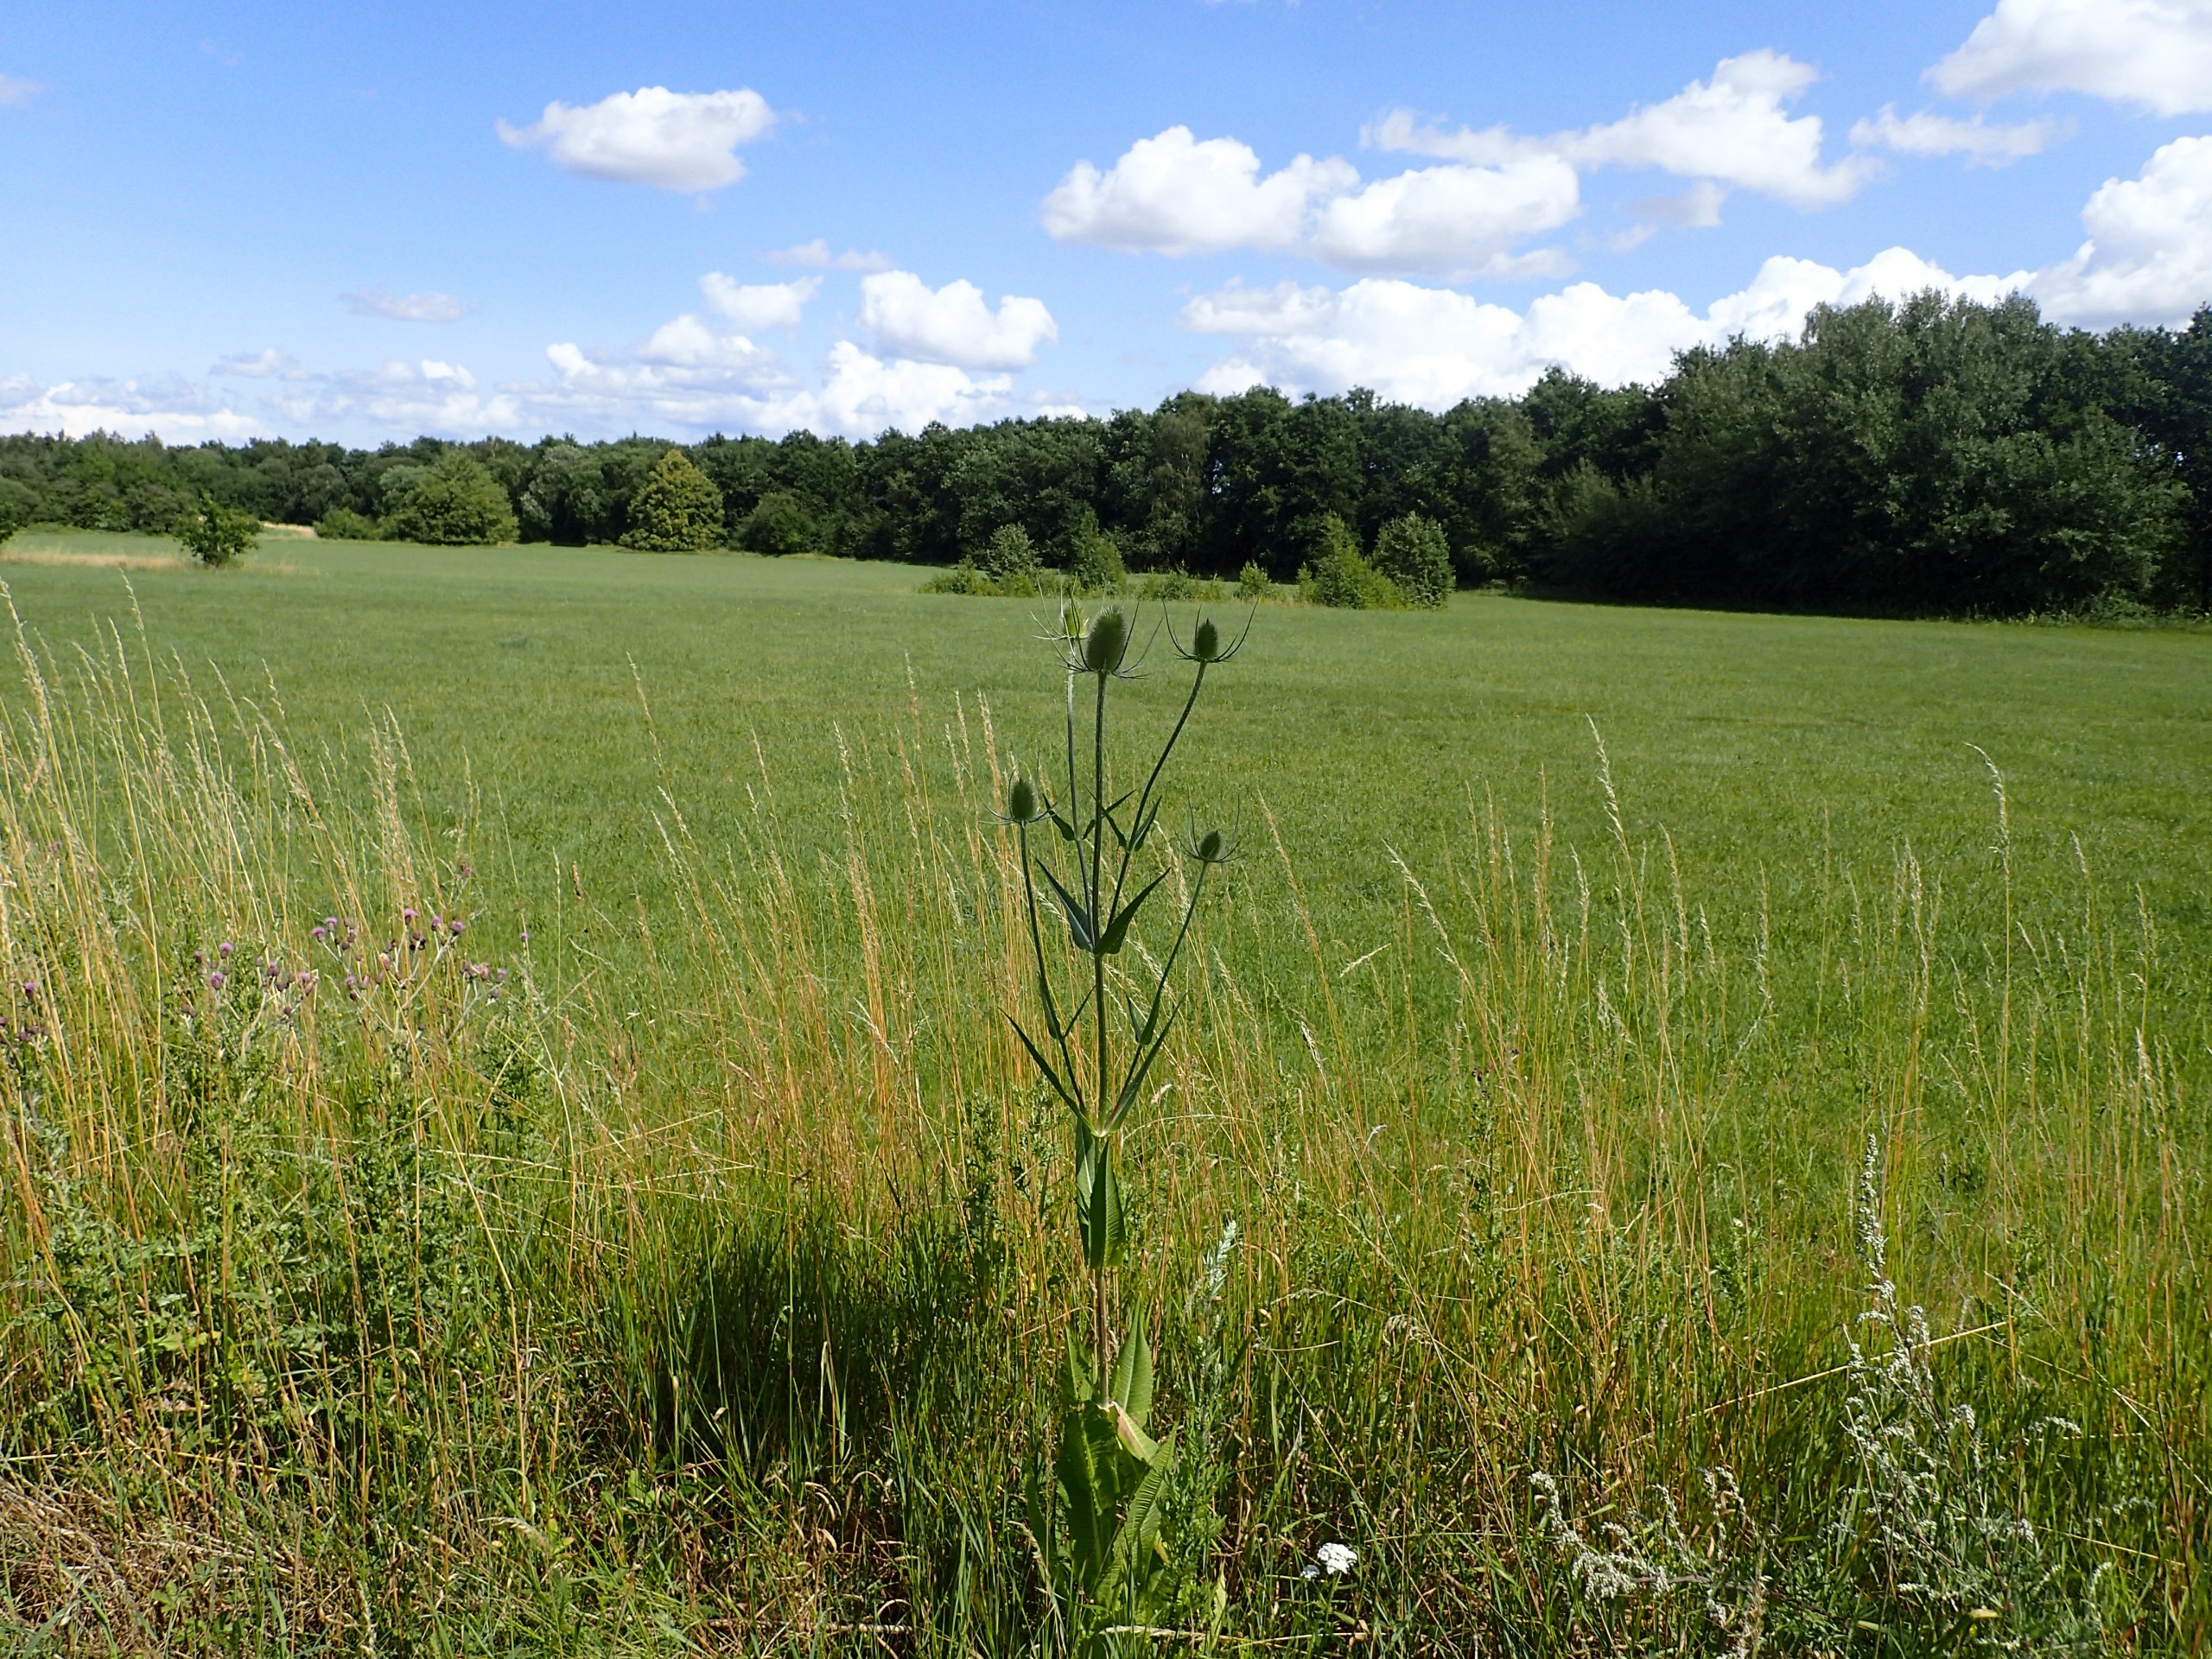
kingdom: Plantae
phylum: Tracheophyta
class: Magnoliopsida
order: Dipsacales
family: Caprifoliaceae
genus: Dipsacus
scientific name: Dipsacus fullonum
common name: Gærde-kartebolle
